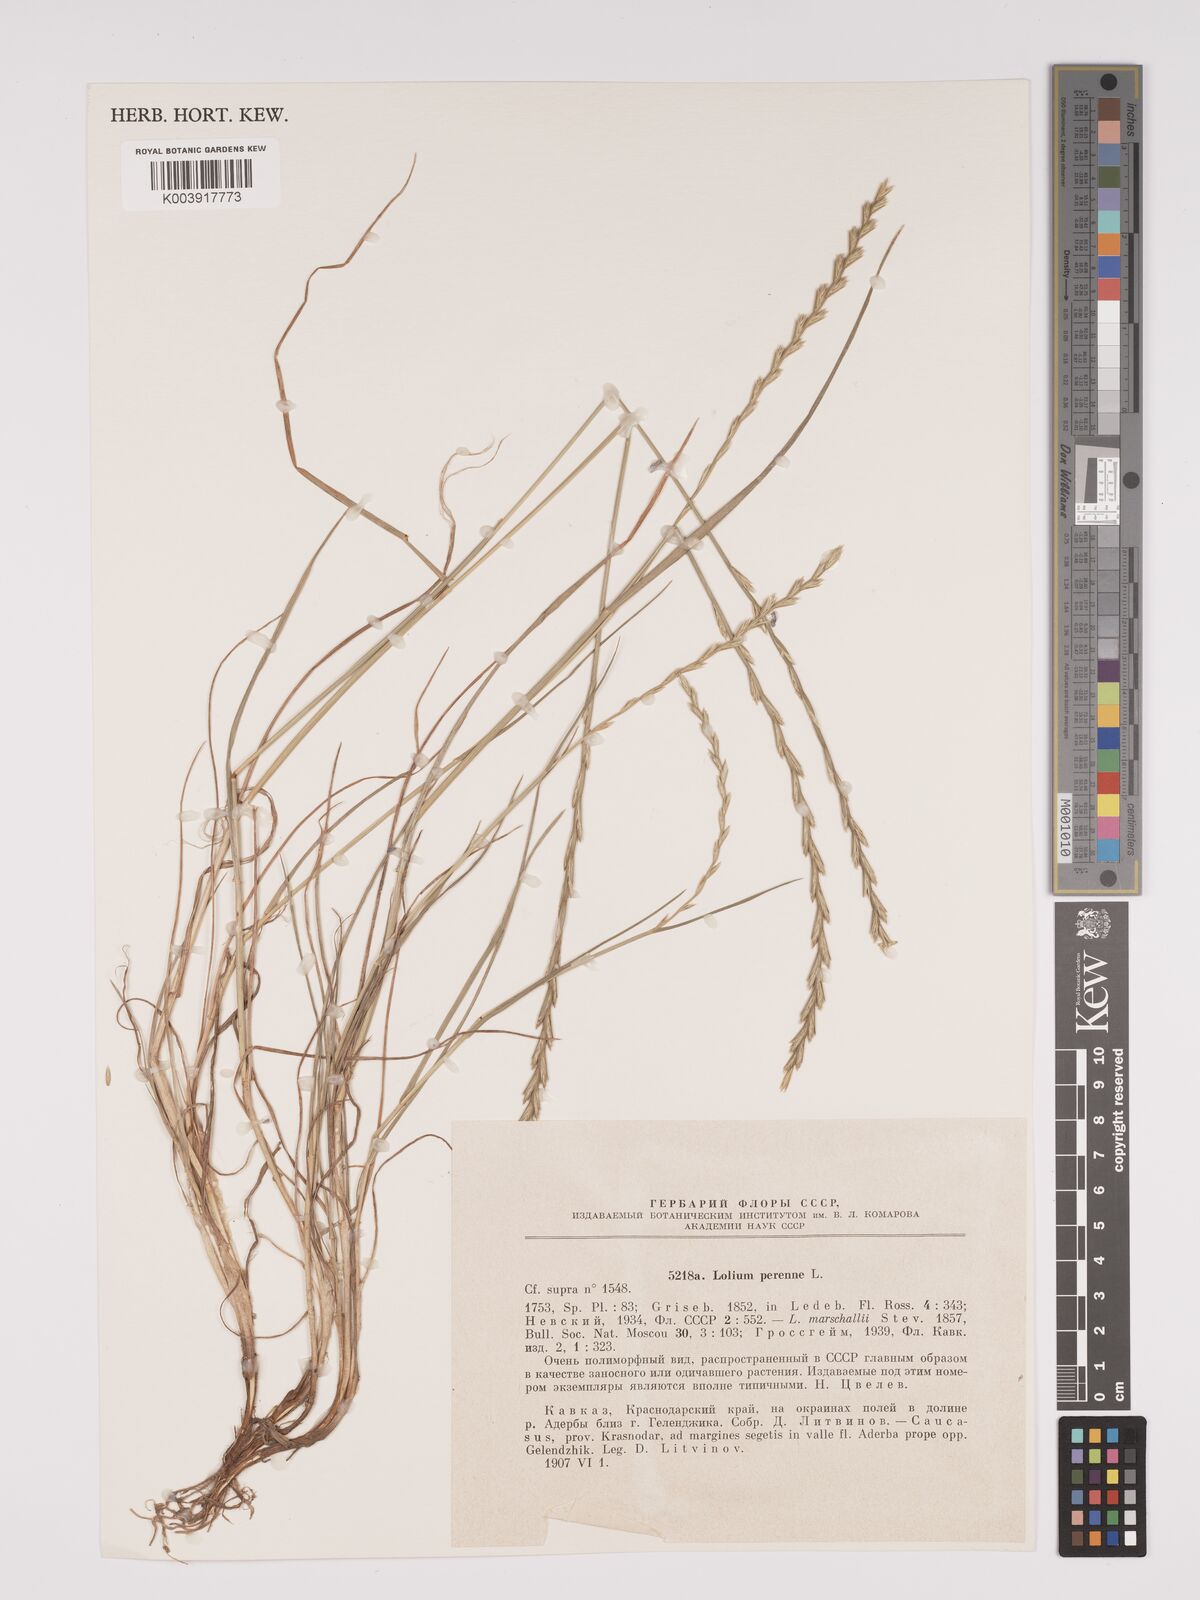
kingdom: Plantae
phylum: Tracheophyta
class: Liliopsida
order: Poales
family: Poaceae
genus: Lolium
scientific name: Lolium perenne
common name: Perennial ryegrass
